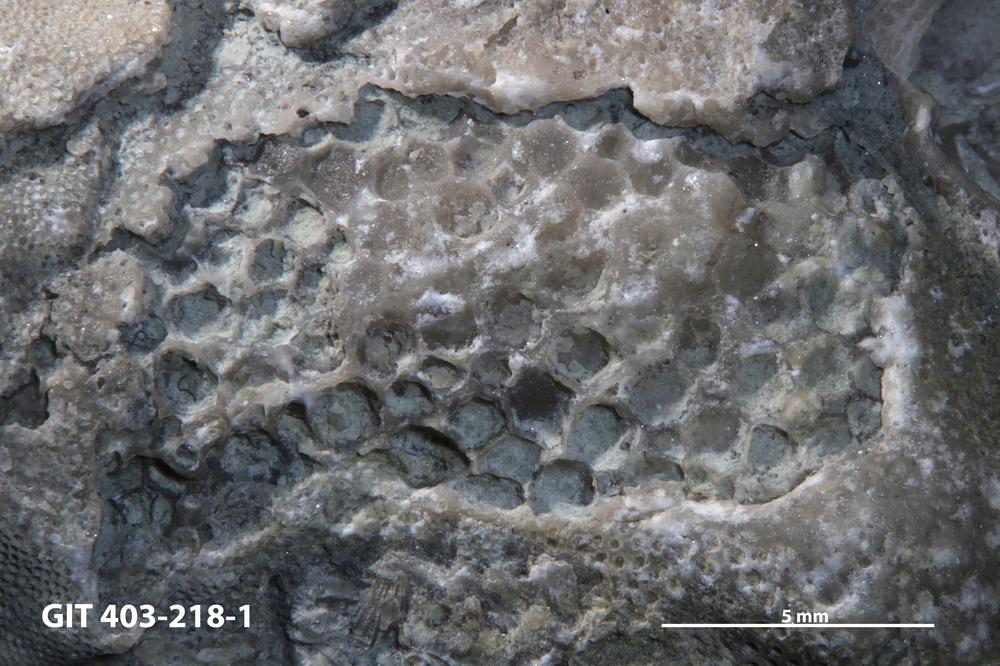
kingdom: Animalia
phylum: Cnidaria
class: Anthozoa
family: Favositidae
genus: Favosites
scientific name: Favosites
